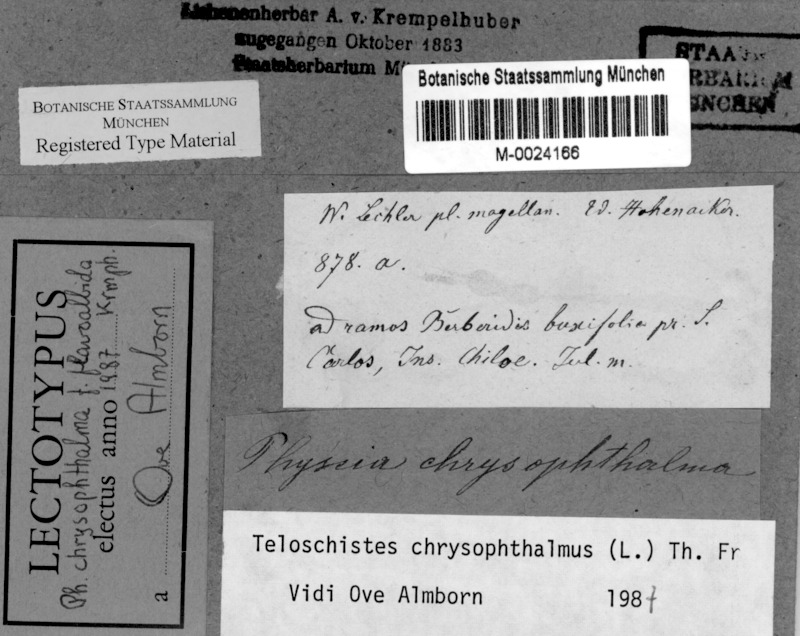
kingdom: Fungi
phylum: Ascomycota
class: Lecanoromycetes
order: Teloschistales
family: Teloschistaceae
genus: Niorma
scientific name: Niorma chrysophthalma
